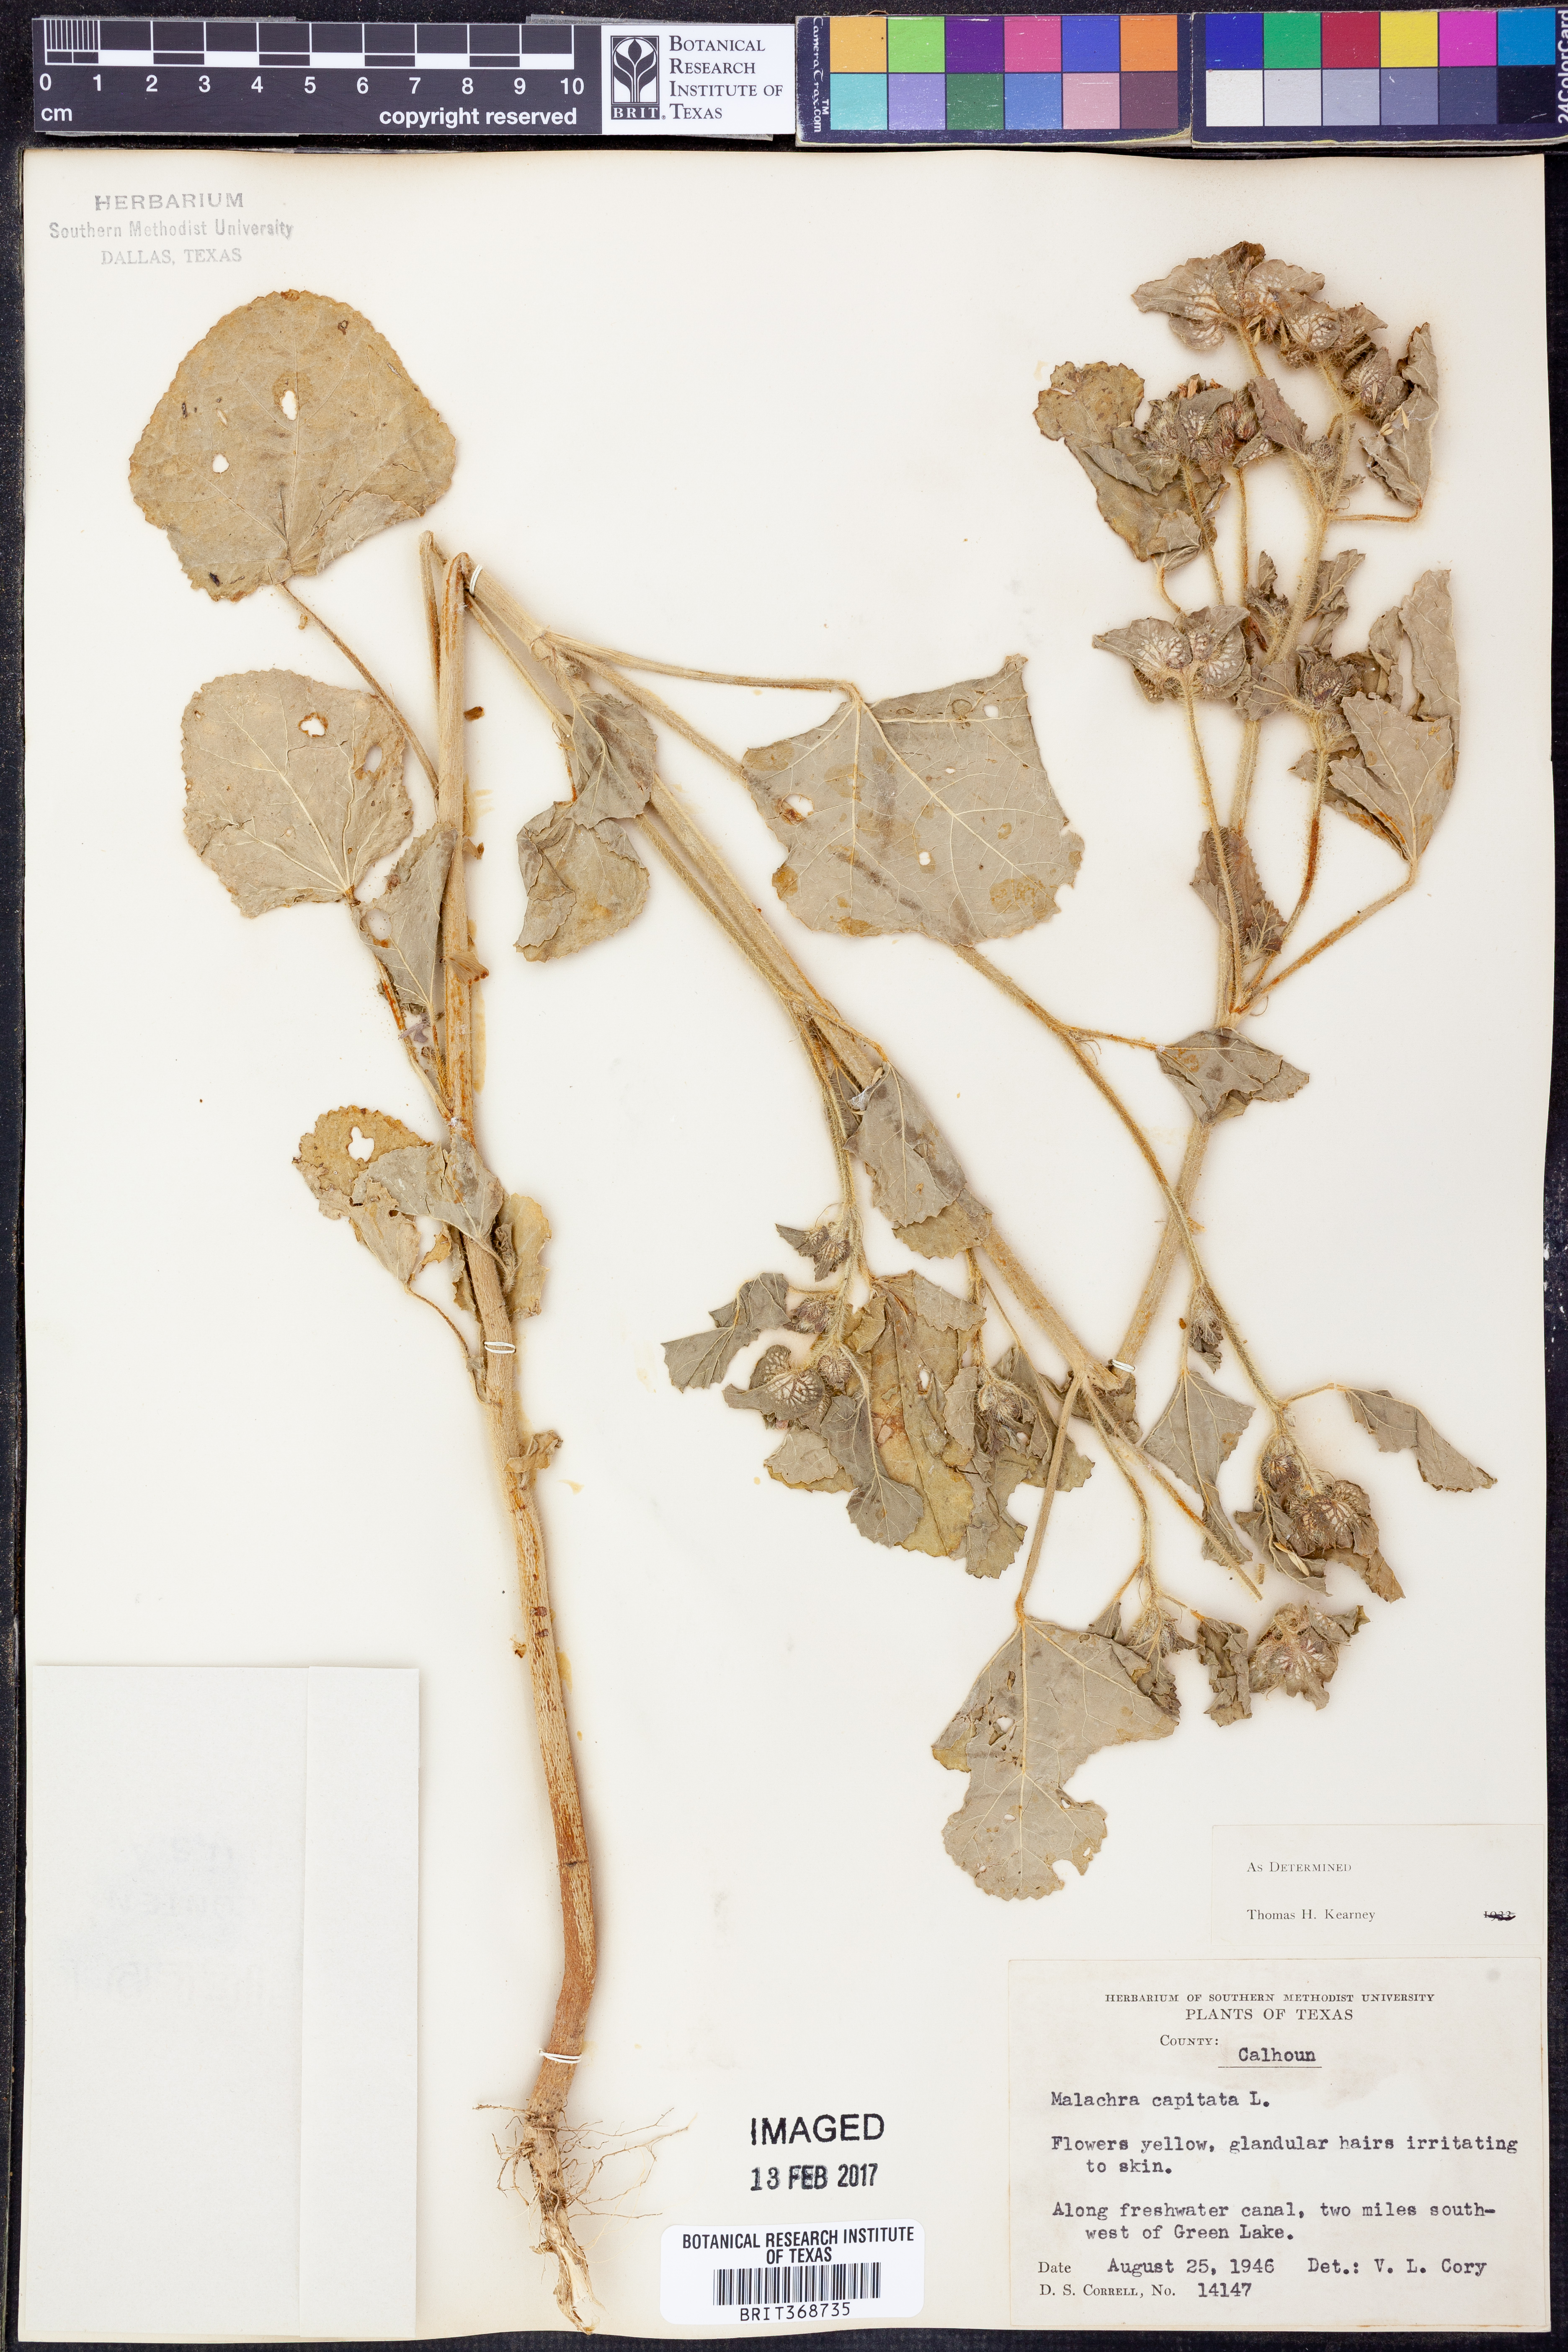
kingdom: Plantae
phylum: Tracheophyta
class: Magnoliopsida
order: Malvales
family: Malvaceae
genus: Malachra
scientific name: Malachra capitata
